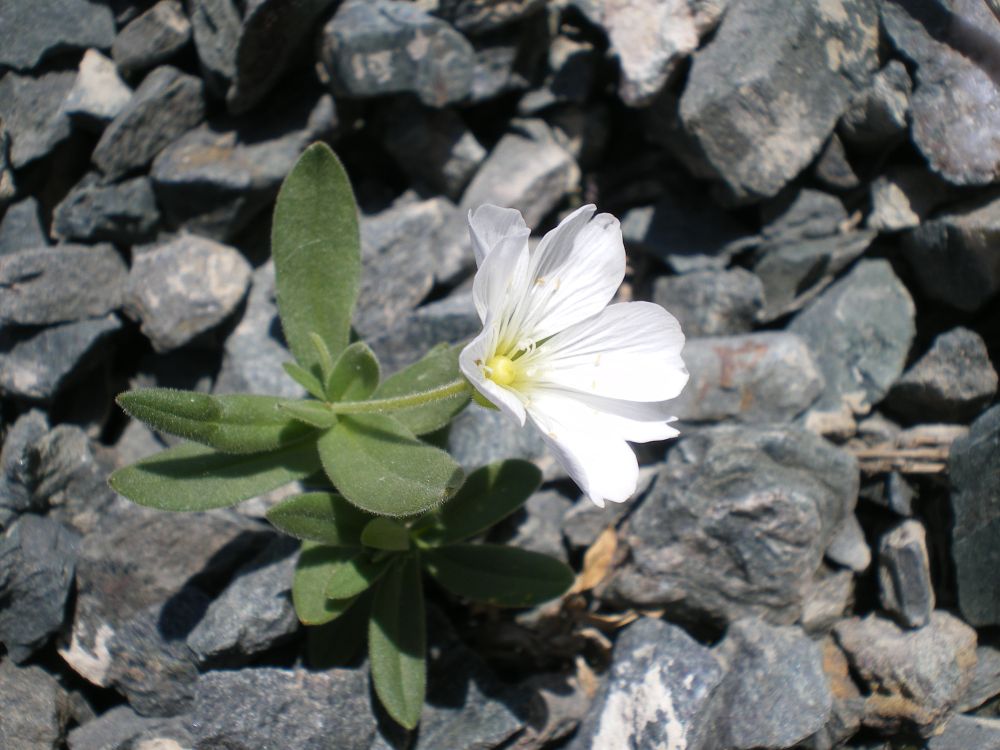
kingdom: Plantae
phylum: Tracheophyta
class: Magnoliopsida
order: Caryophyllales
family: Caryophyllaceae
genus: Cerastium
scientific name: Cerastium lithospermifolium
